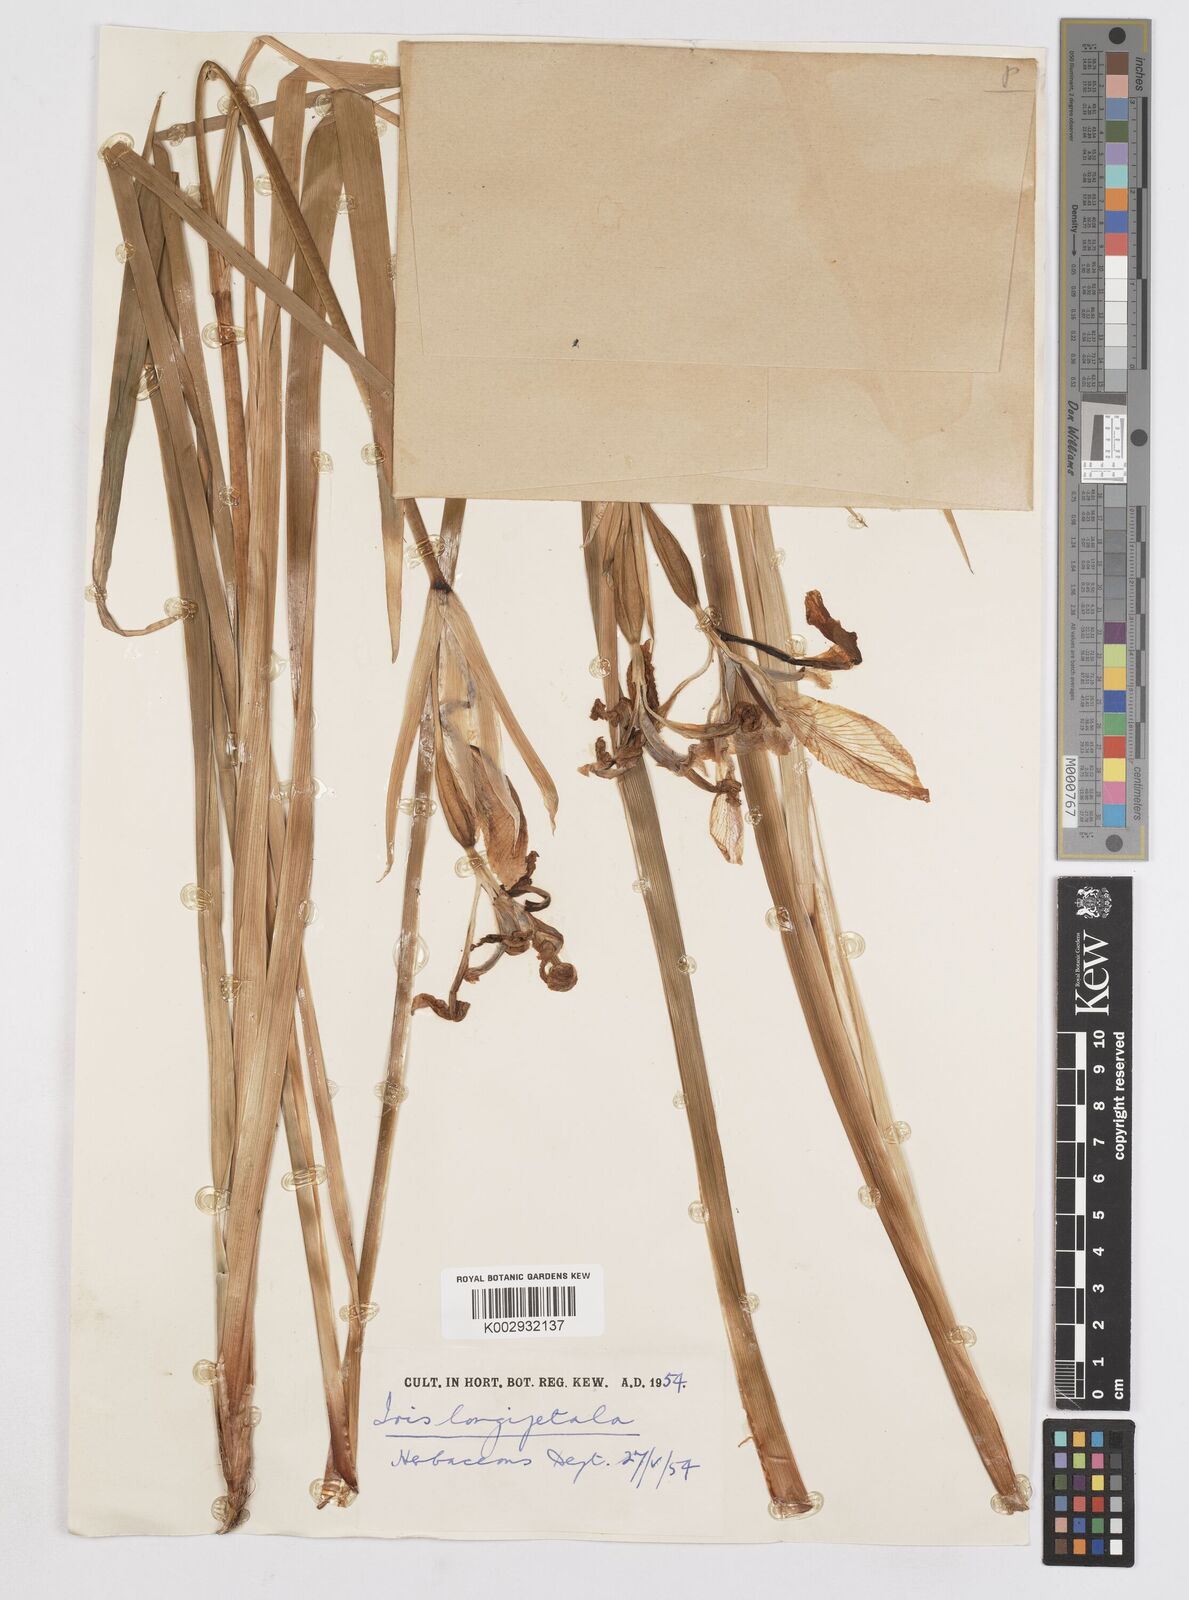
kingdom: Plantae
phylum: Tracheophyta
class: Liliopsida
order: Asparagales
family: Iridaceae
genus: Iris
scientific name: Iris longipetala
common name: Long-petal iris
